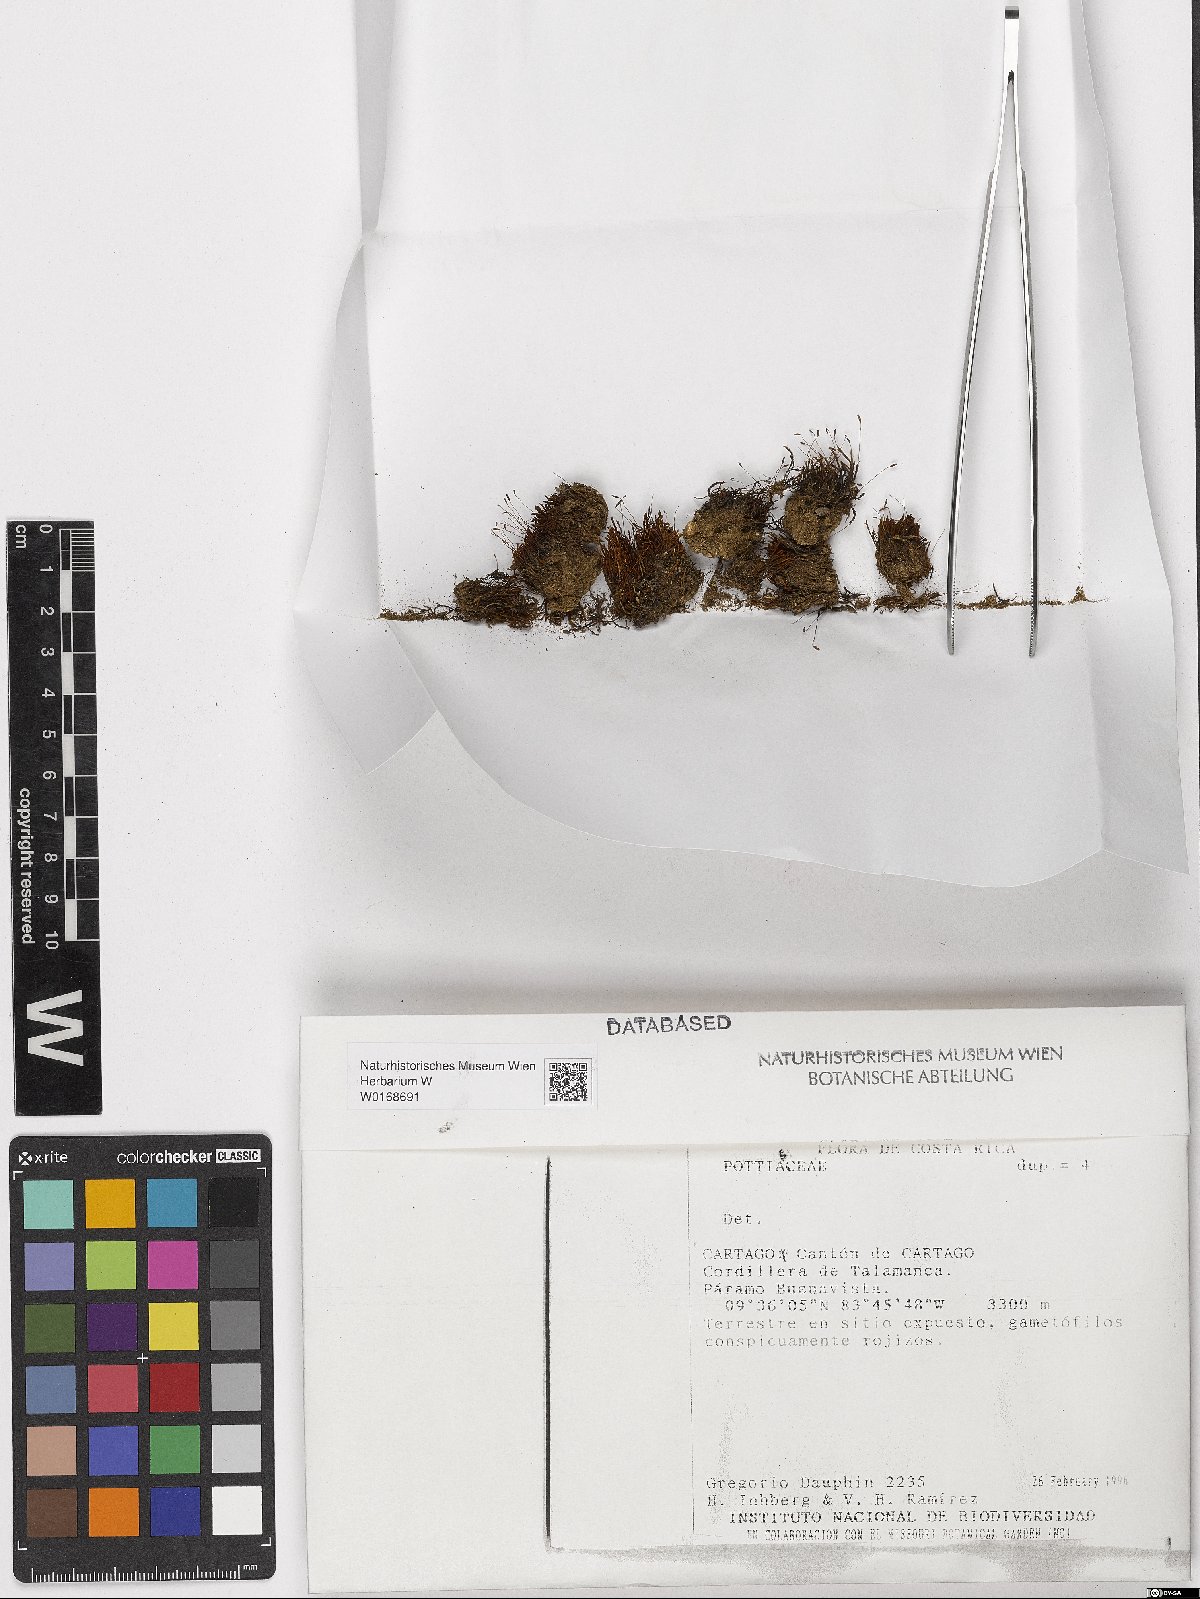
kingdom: Plantae
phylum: Bryophyta
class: Bryopsida
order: Pottiales
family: Pottiaceae
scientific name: Pottiaceae
